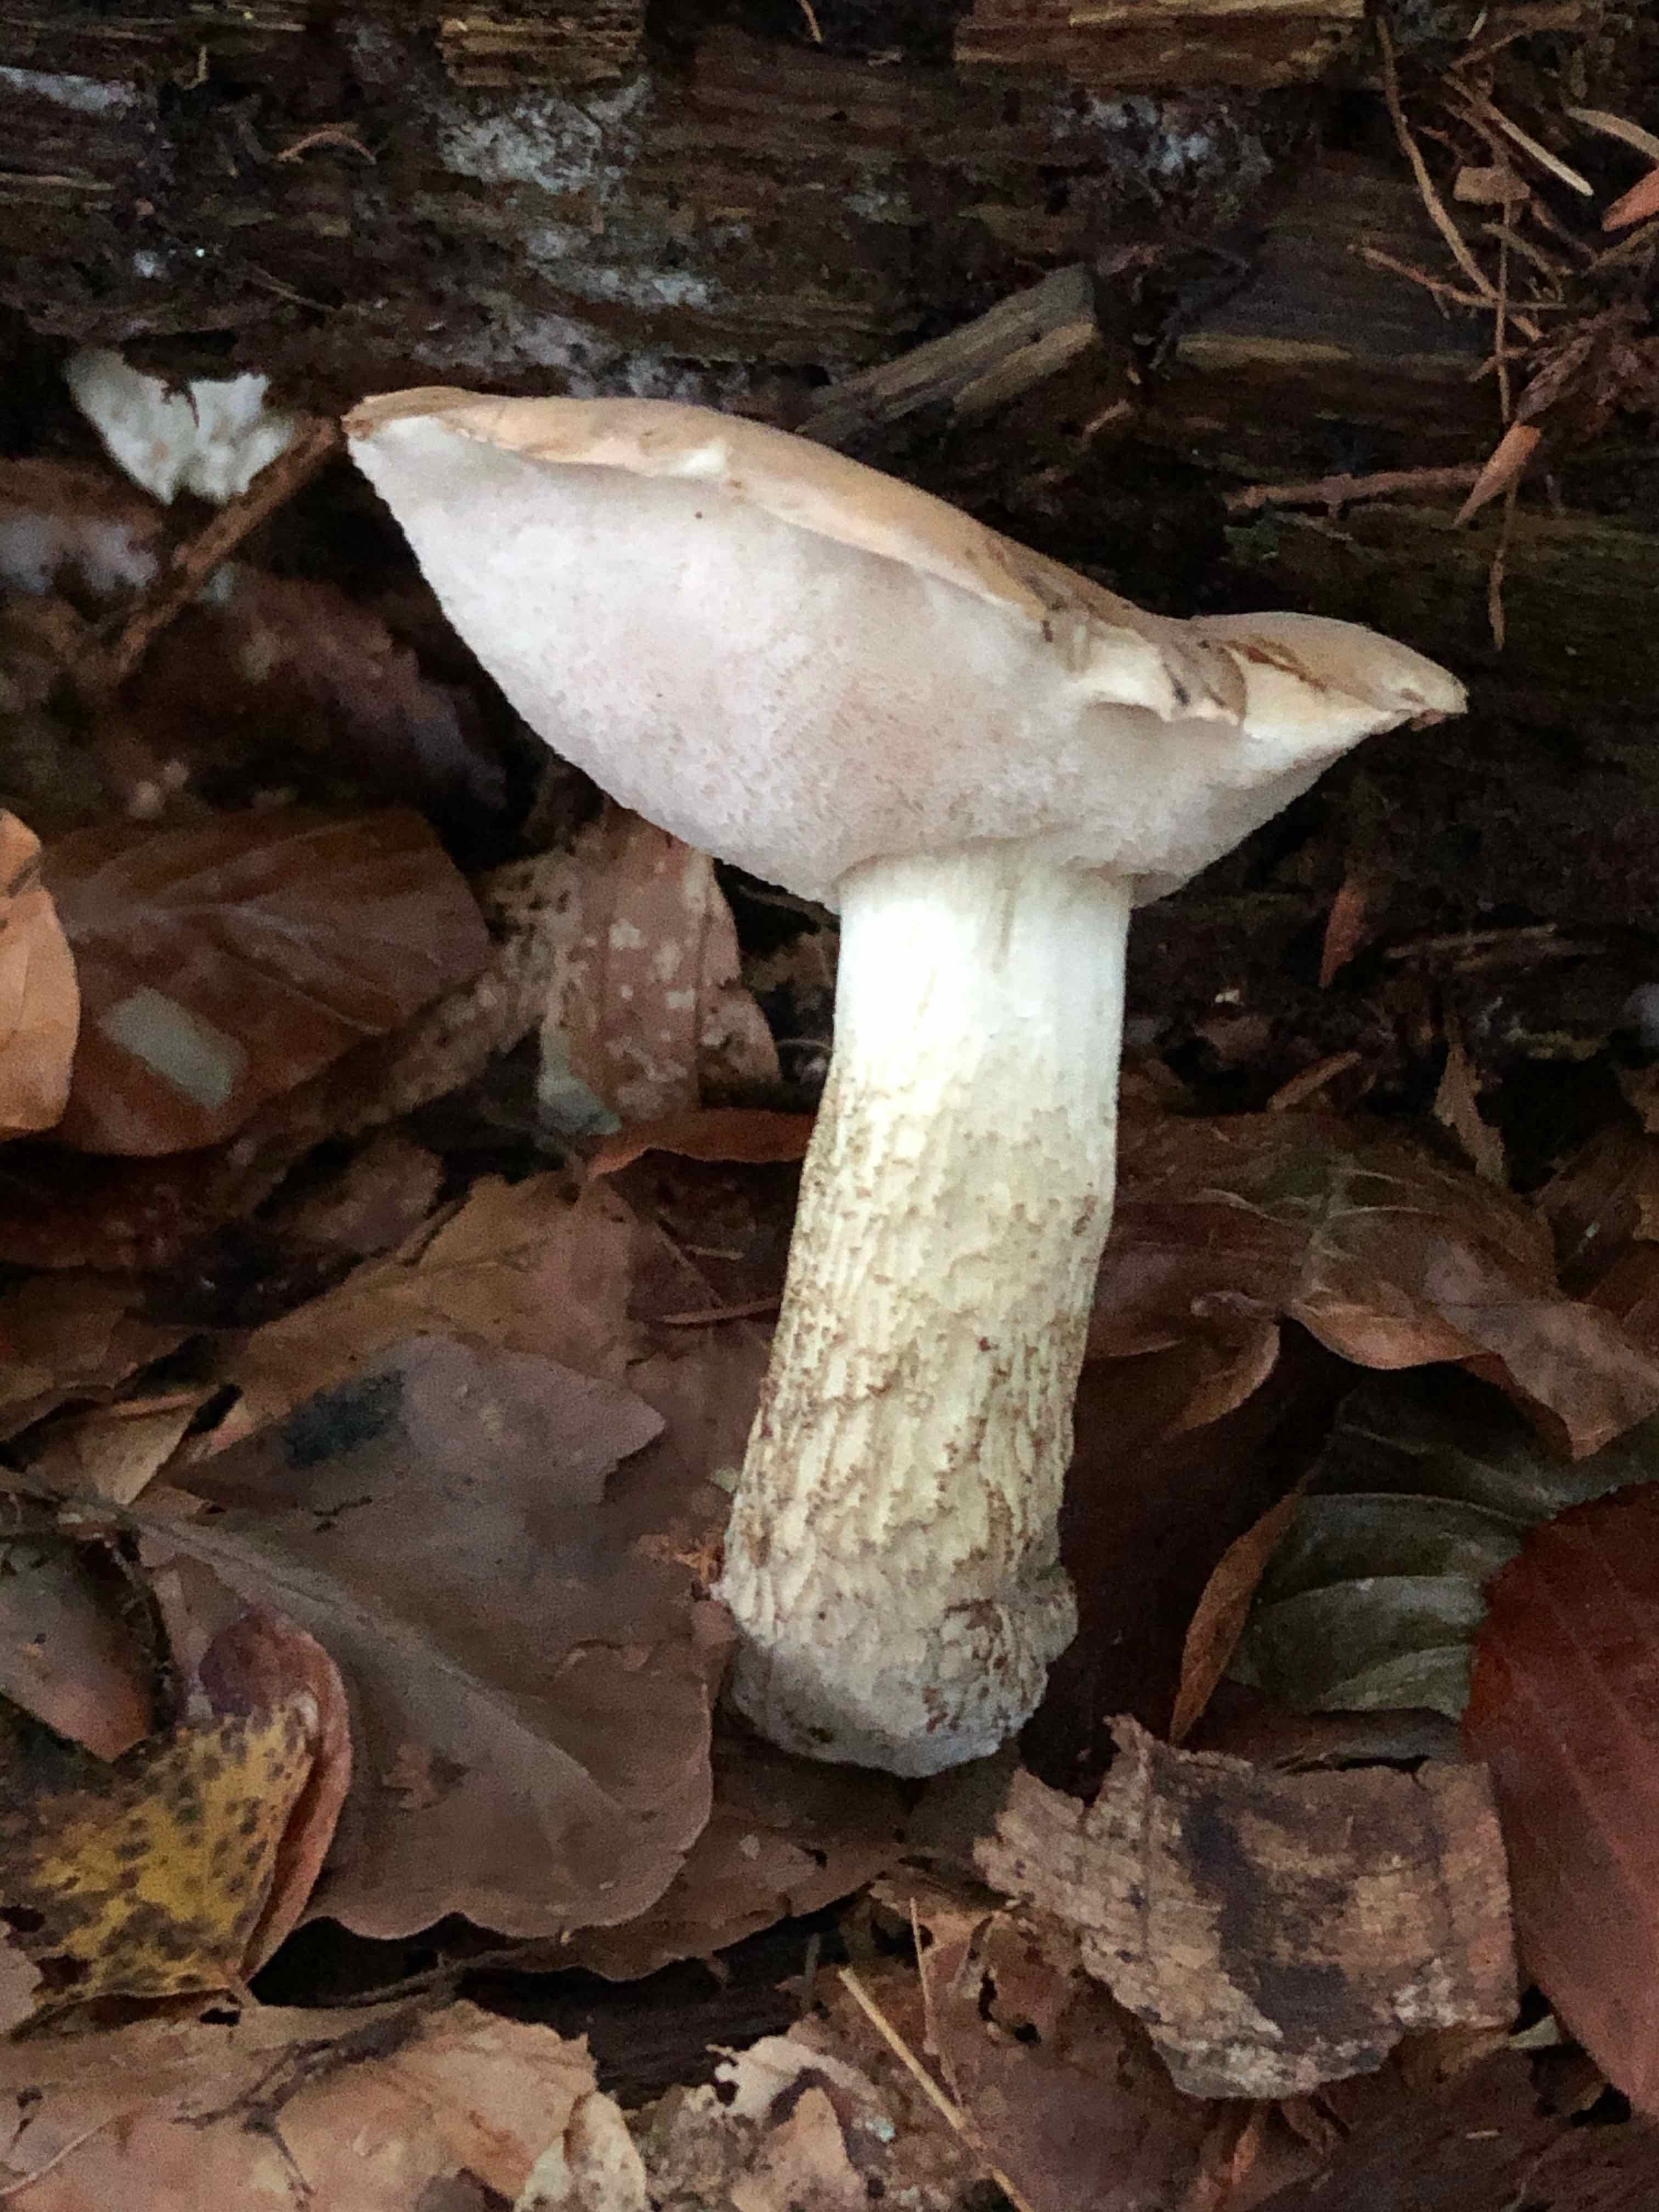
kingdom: Fungi
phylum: Basidiomycota
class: Agaricomycetes
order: Boletales
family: Boletaceae
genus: Tylopilus
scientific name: Tylopilus felleus
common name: galderørhat
